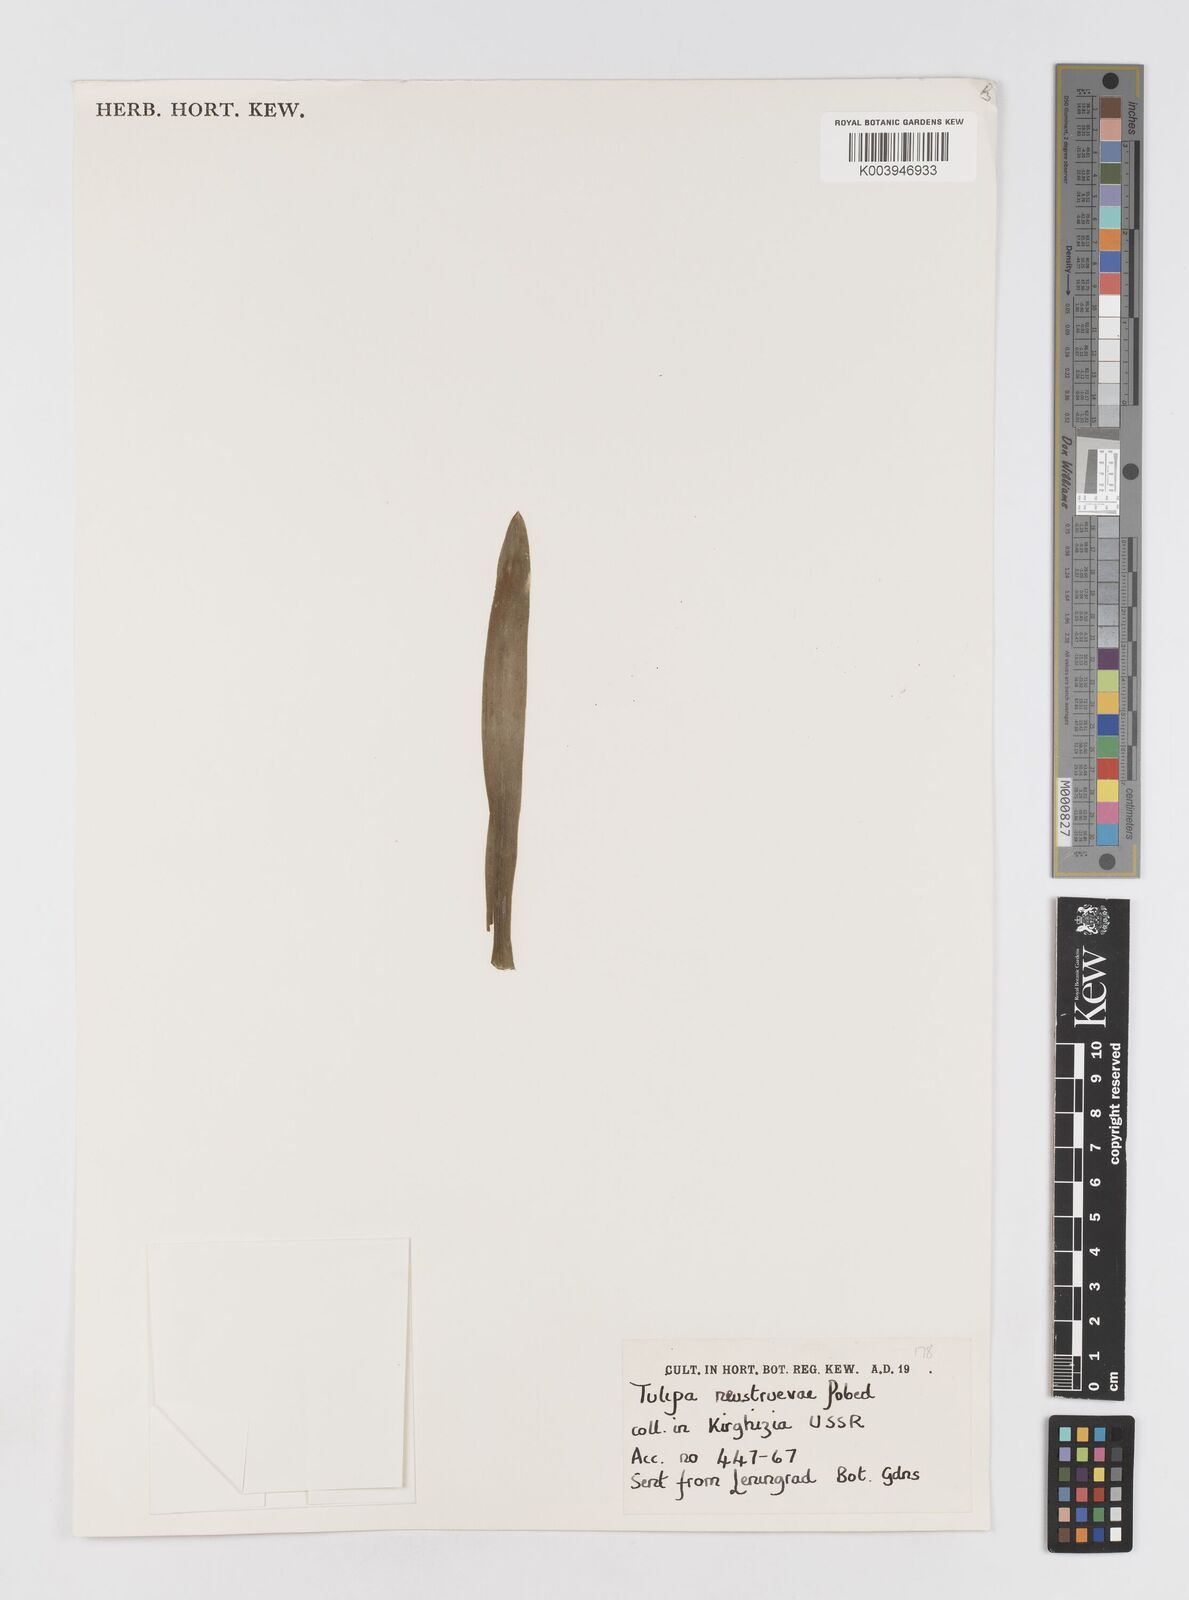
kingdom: Plantae
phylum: Tracheophyta
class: Liliopsida
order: Liliales
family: Liliaceae
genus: Tulipa
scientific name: Tulipa dasystemon
